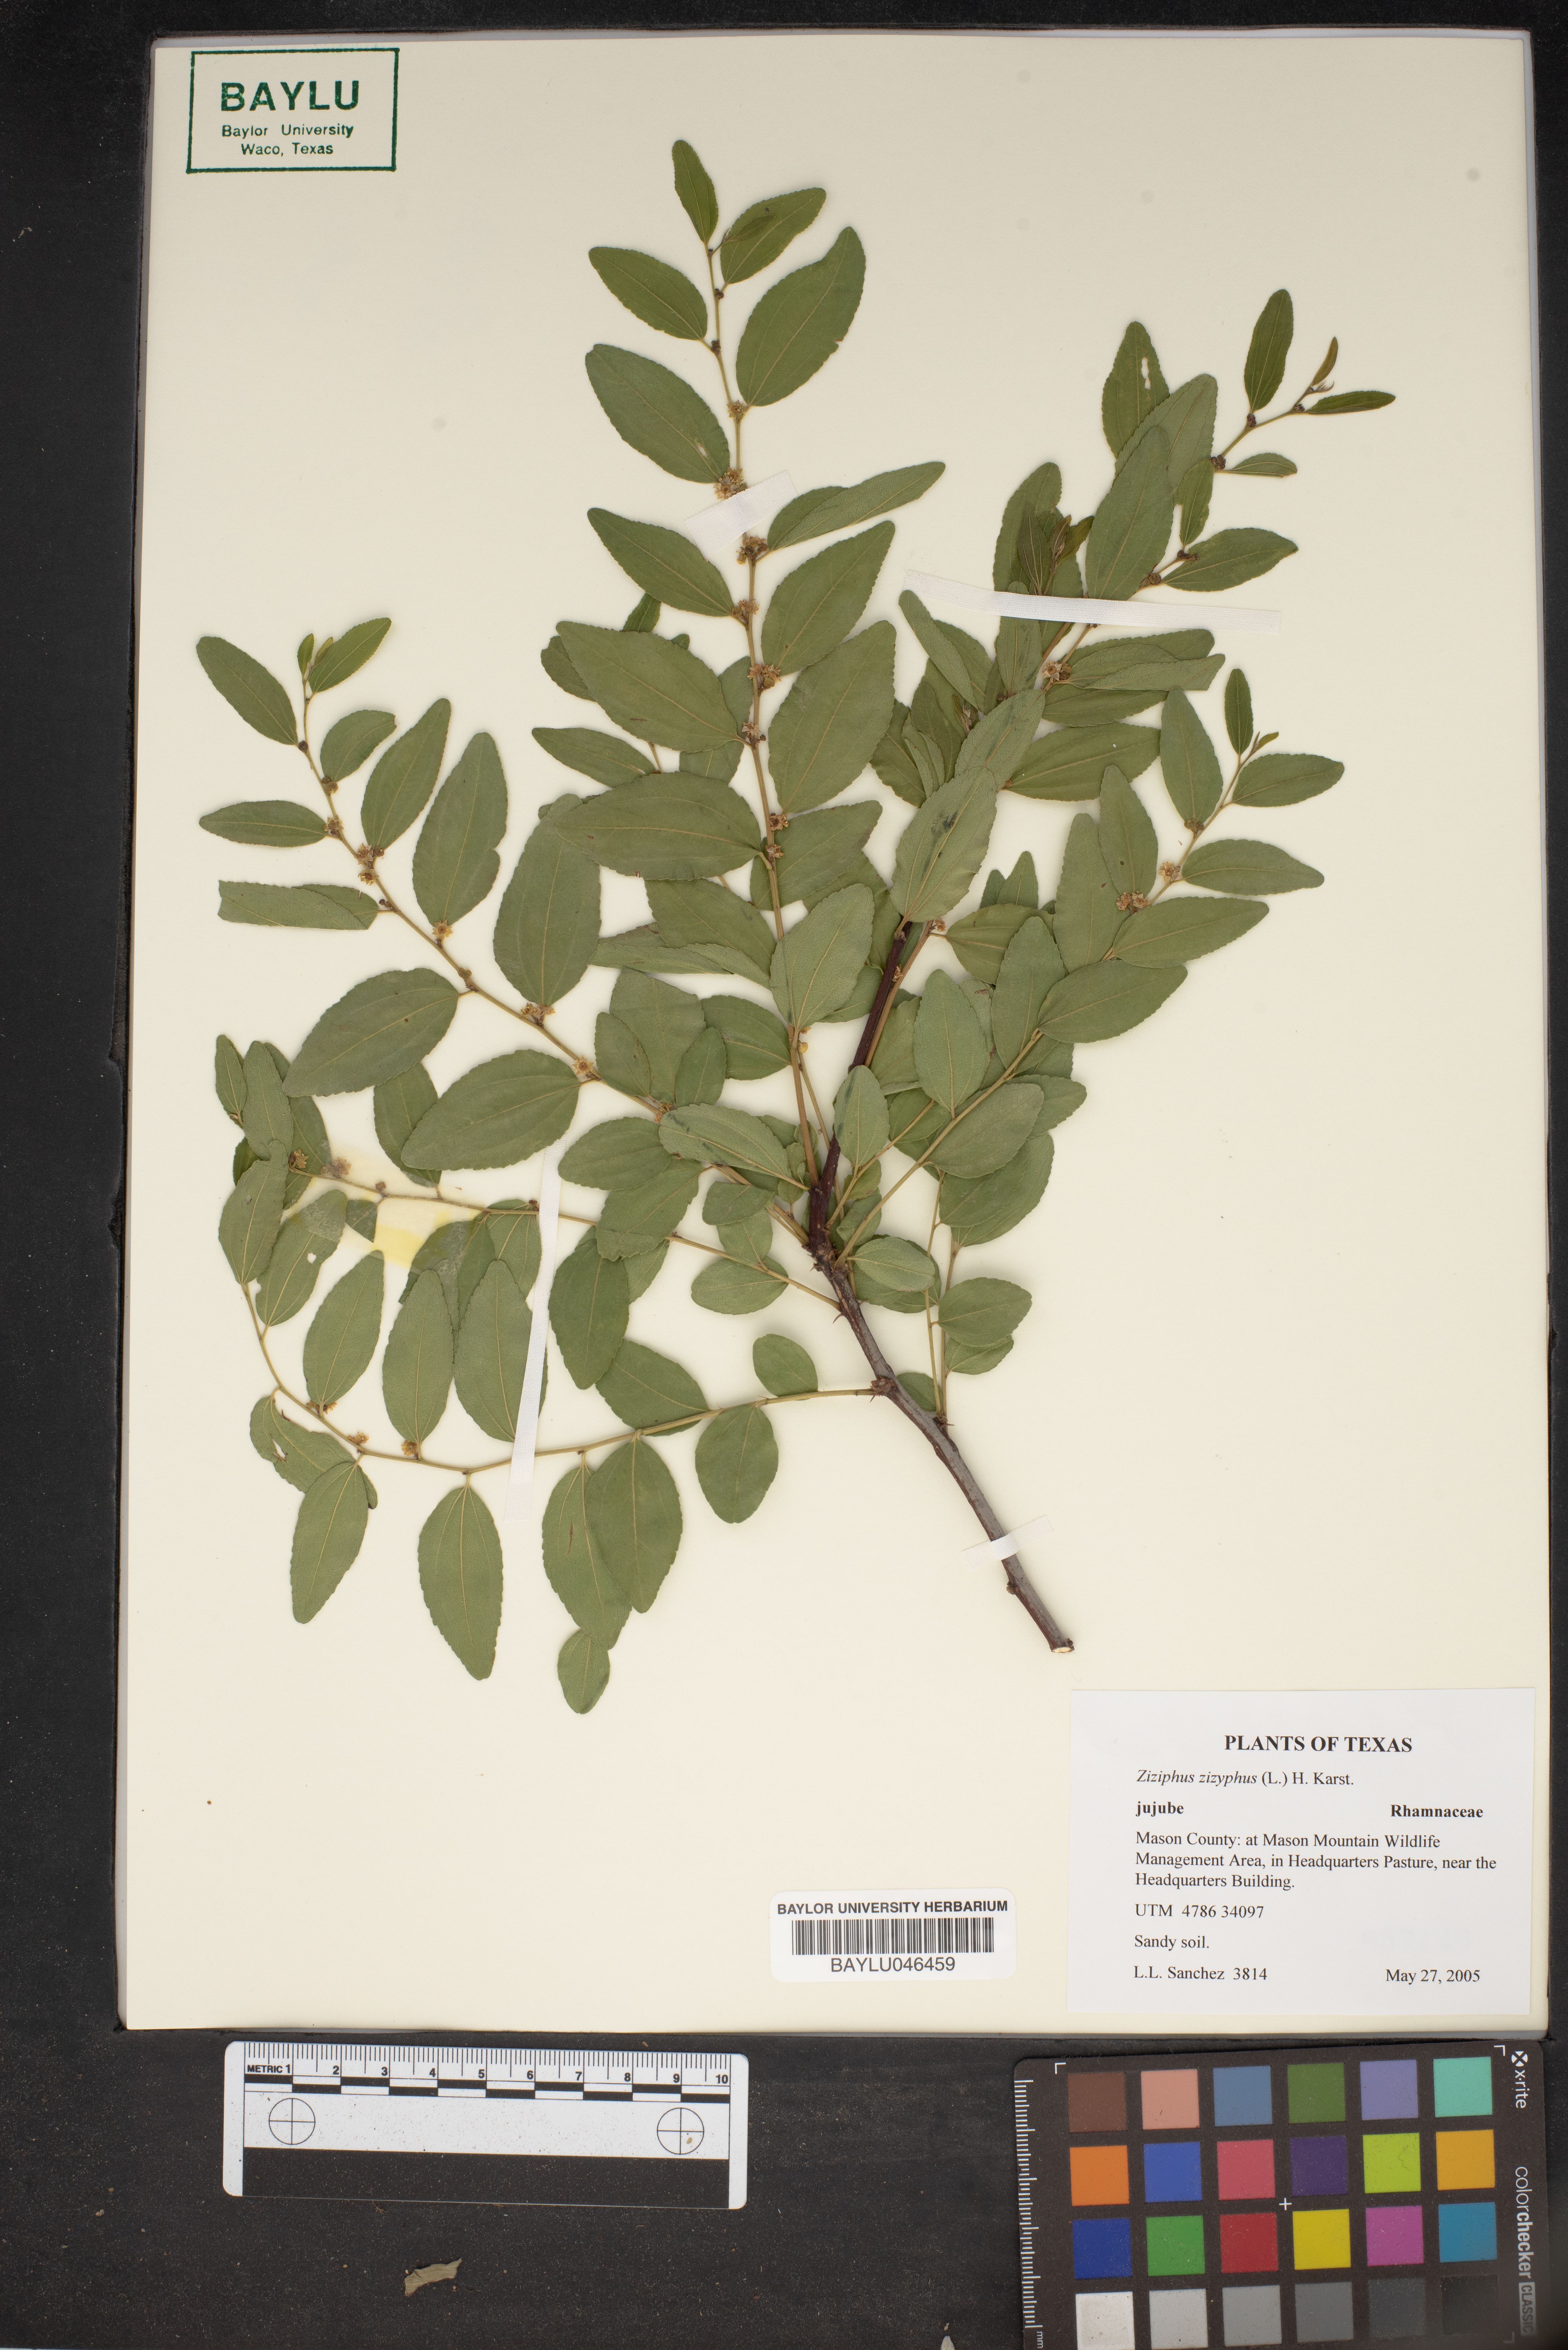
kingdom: Plantae
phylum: Tracheophyta
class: Magnoliopsida
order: Rosales
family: Rhamnaceae
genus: Ziziphus
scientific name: Ziziphus jujuba
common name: Jujube red date
